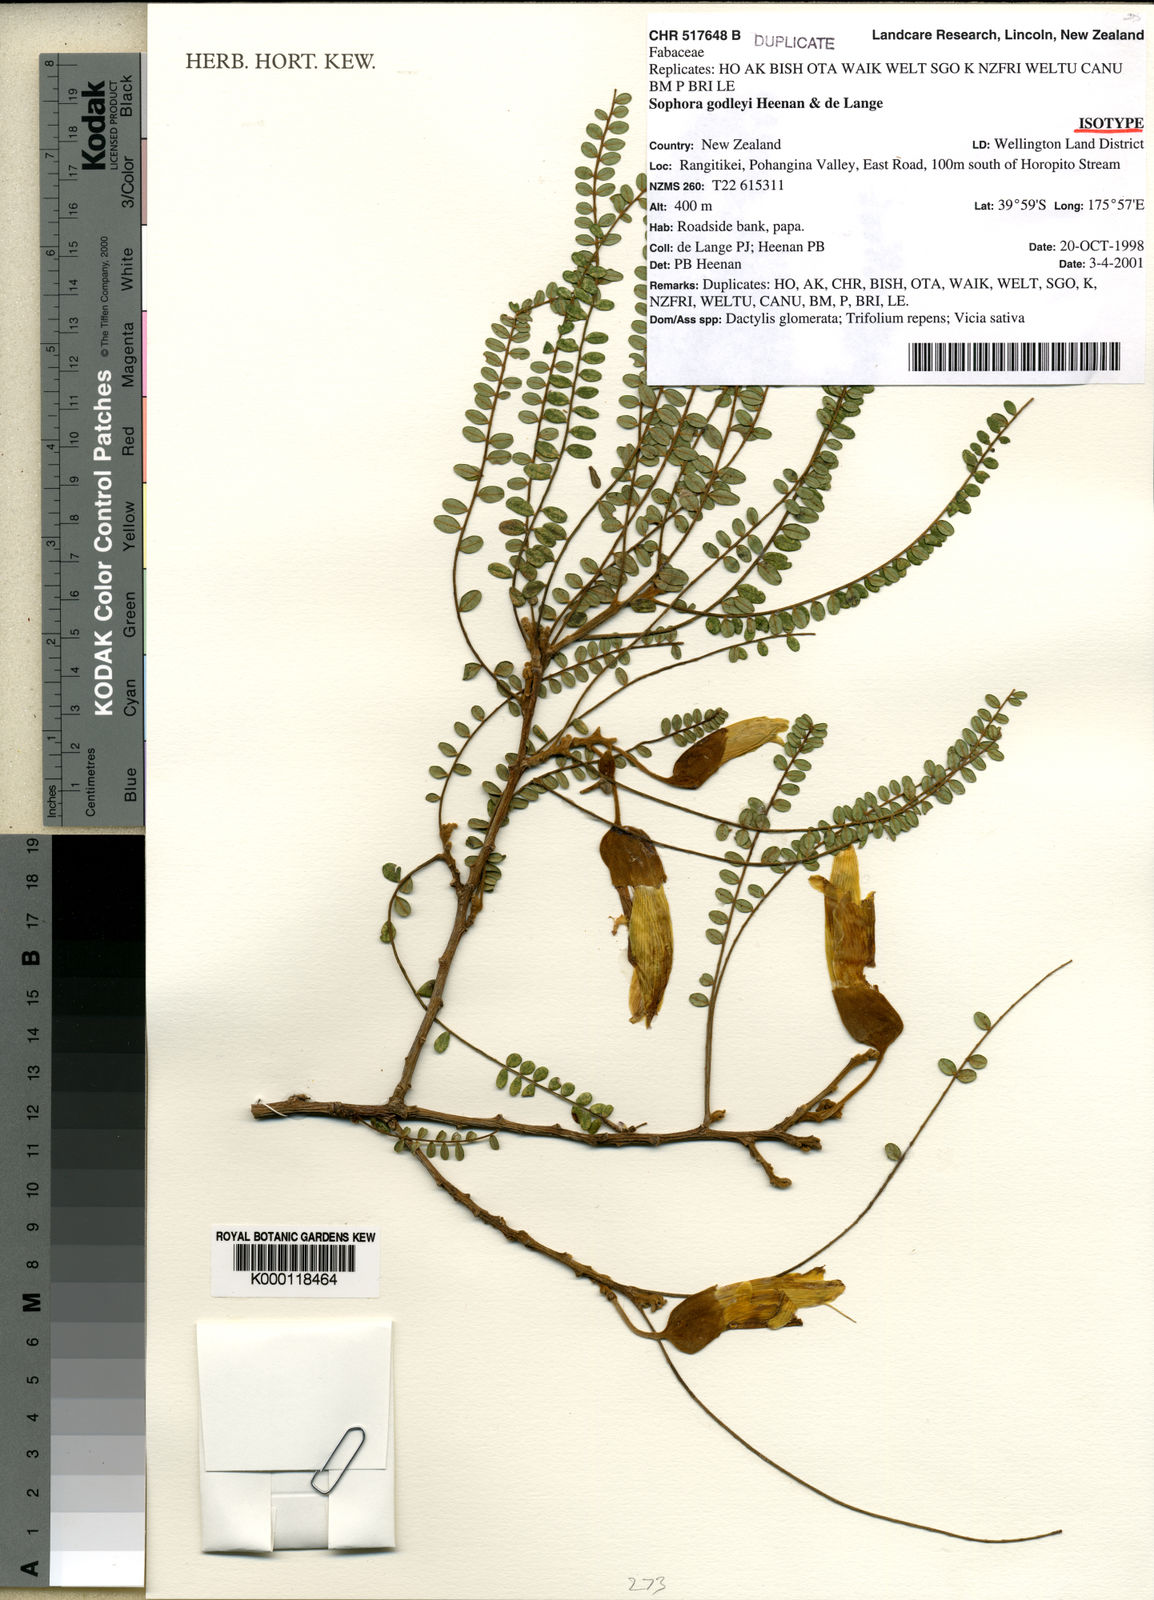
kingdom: Plantae
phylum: Tracheophyta
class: Magnoliopsida
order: Fabales
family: Fabaceae
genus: Sophora
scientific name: Sophora godleyi
